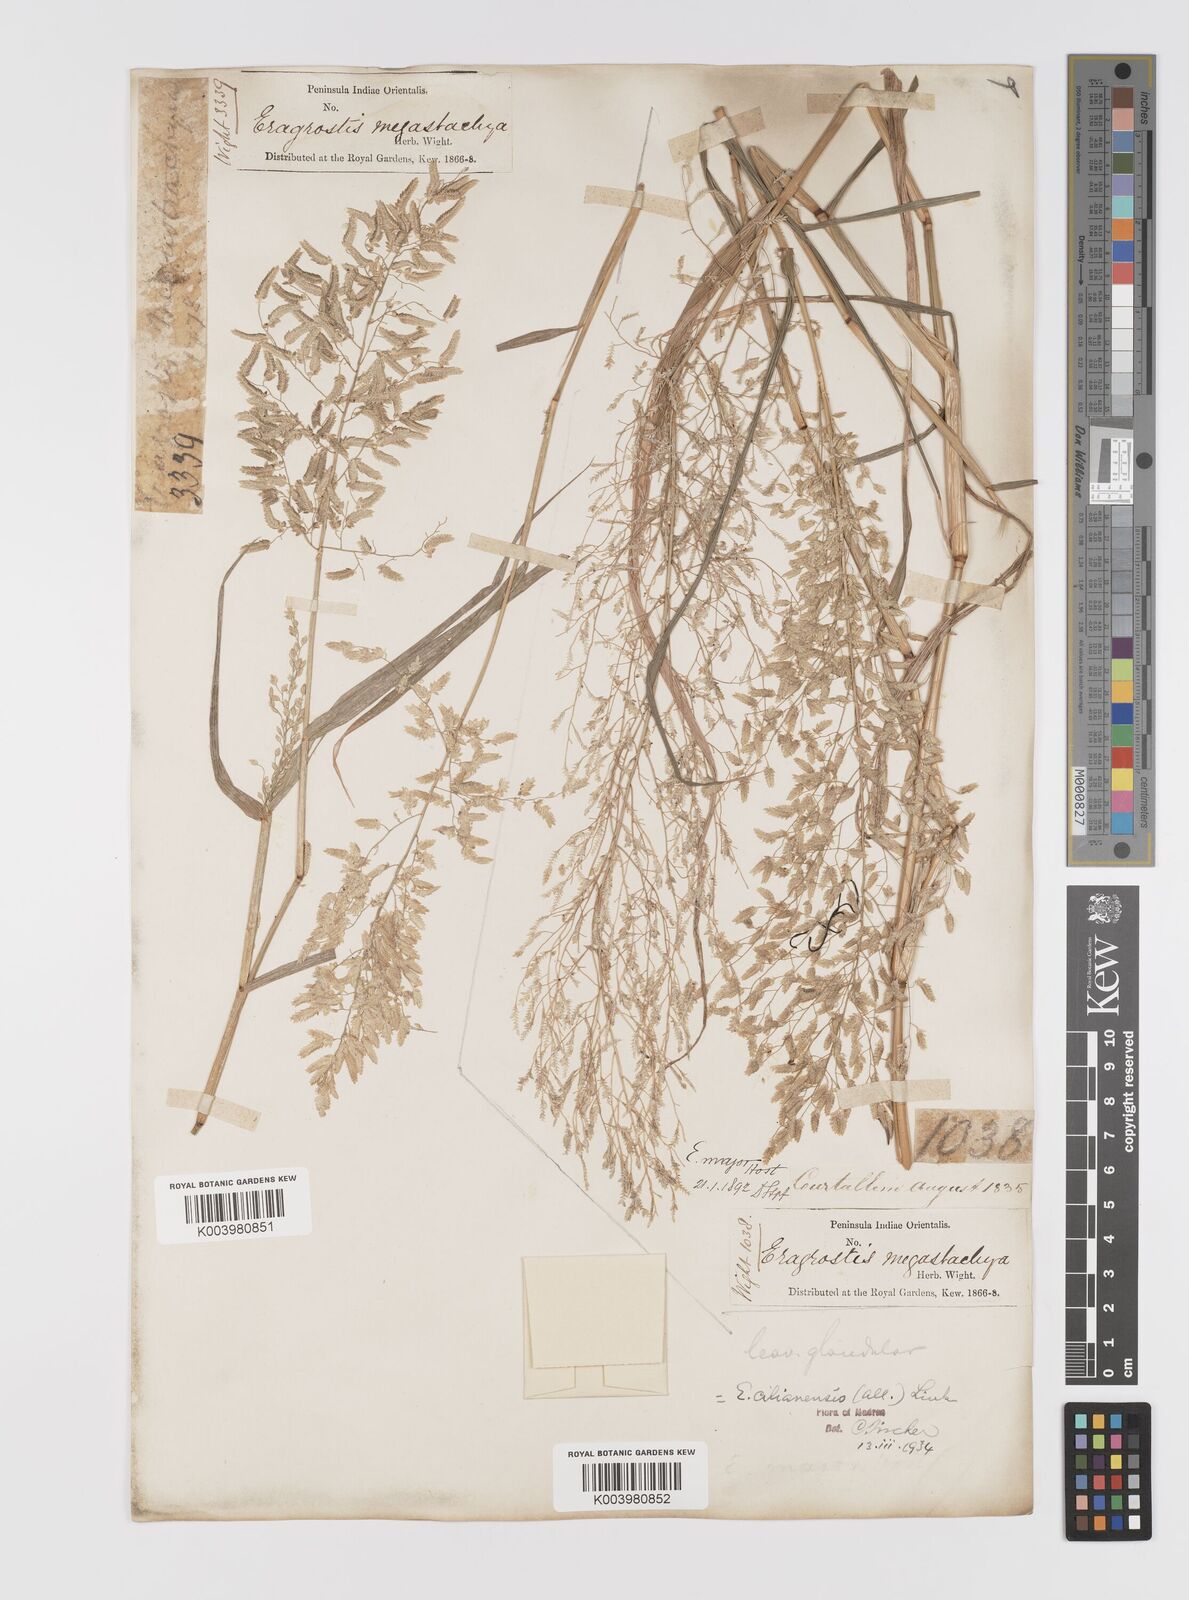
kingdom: Plantae
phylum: Tracheophyta
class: Liliopsida
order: Poales
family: Poaceae
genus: Eragrostis
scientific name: Eragrostis cilianensis
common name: Stinkgrass
